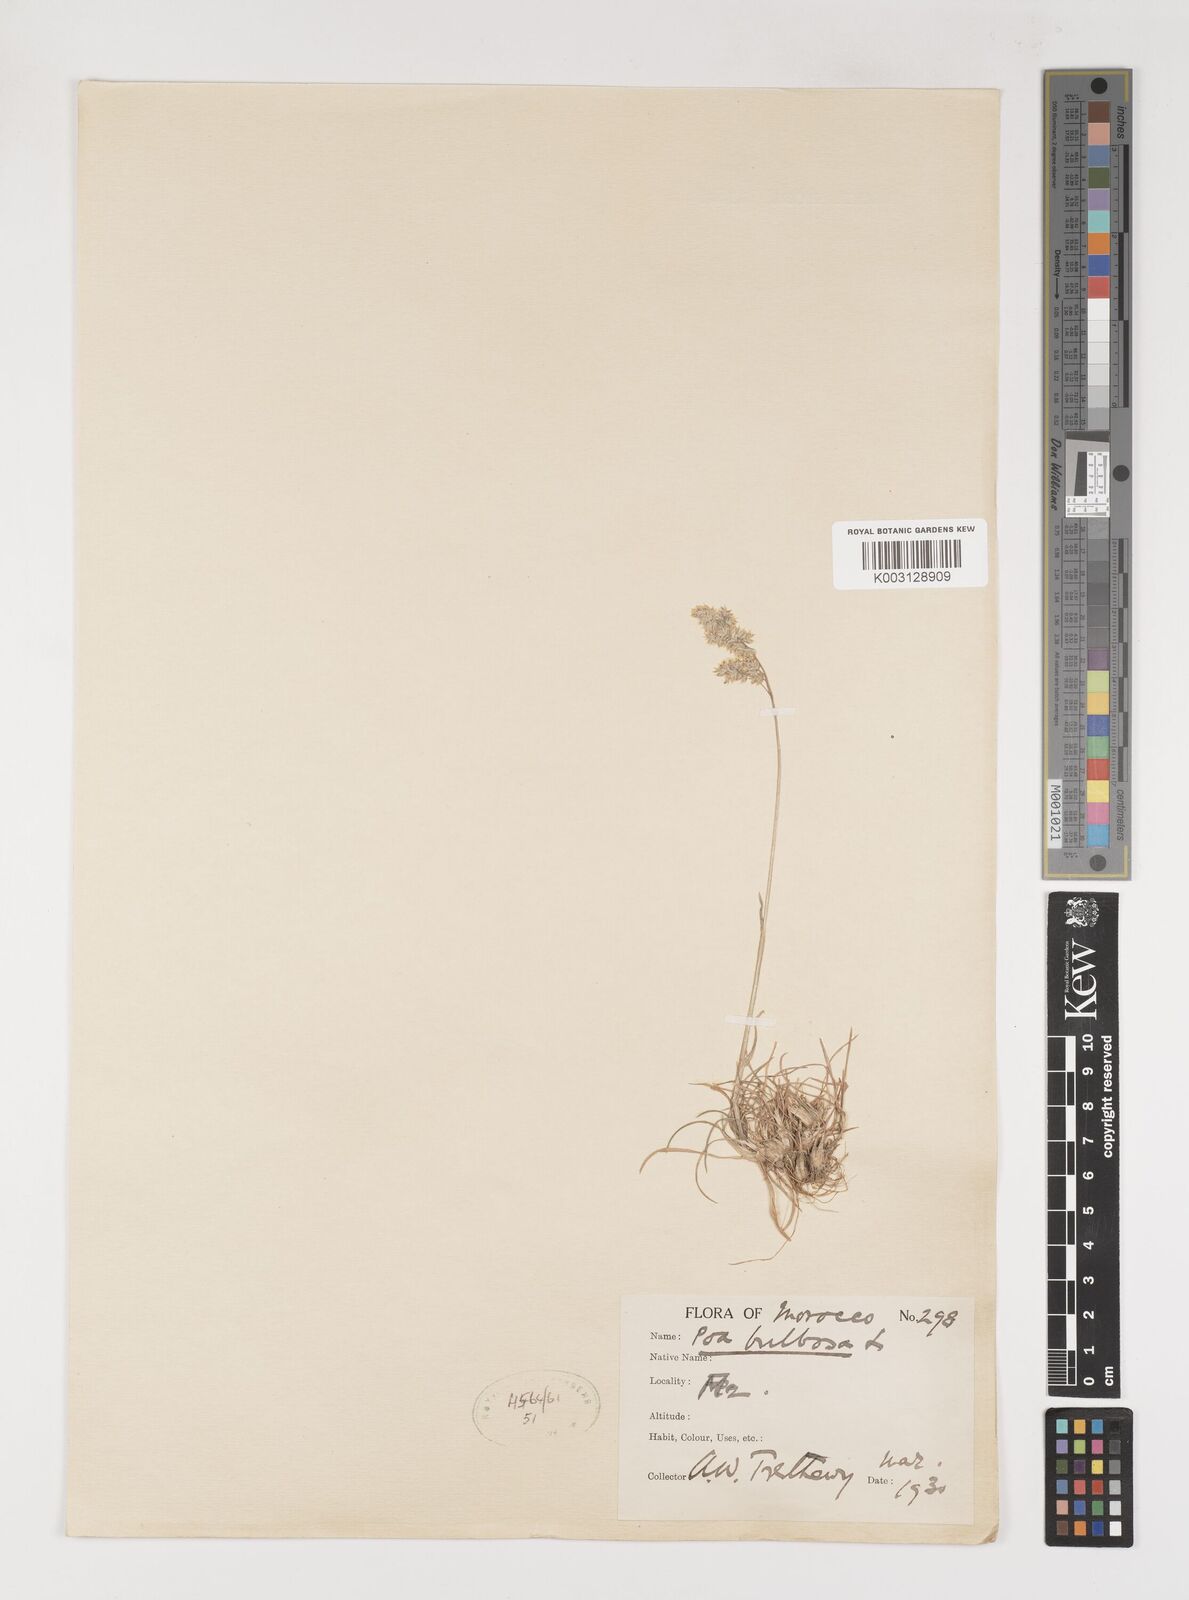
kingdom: Plantae
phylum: Tracheophyta
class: Liliopsida
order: Poales
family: Poaceae
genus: Poa
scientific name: Poa bulbosa
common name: Bulbous bluegrass
